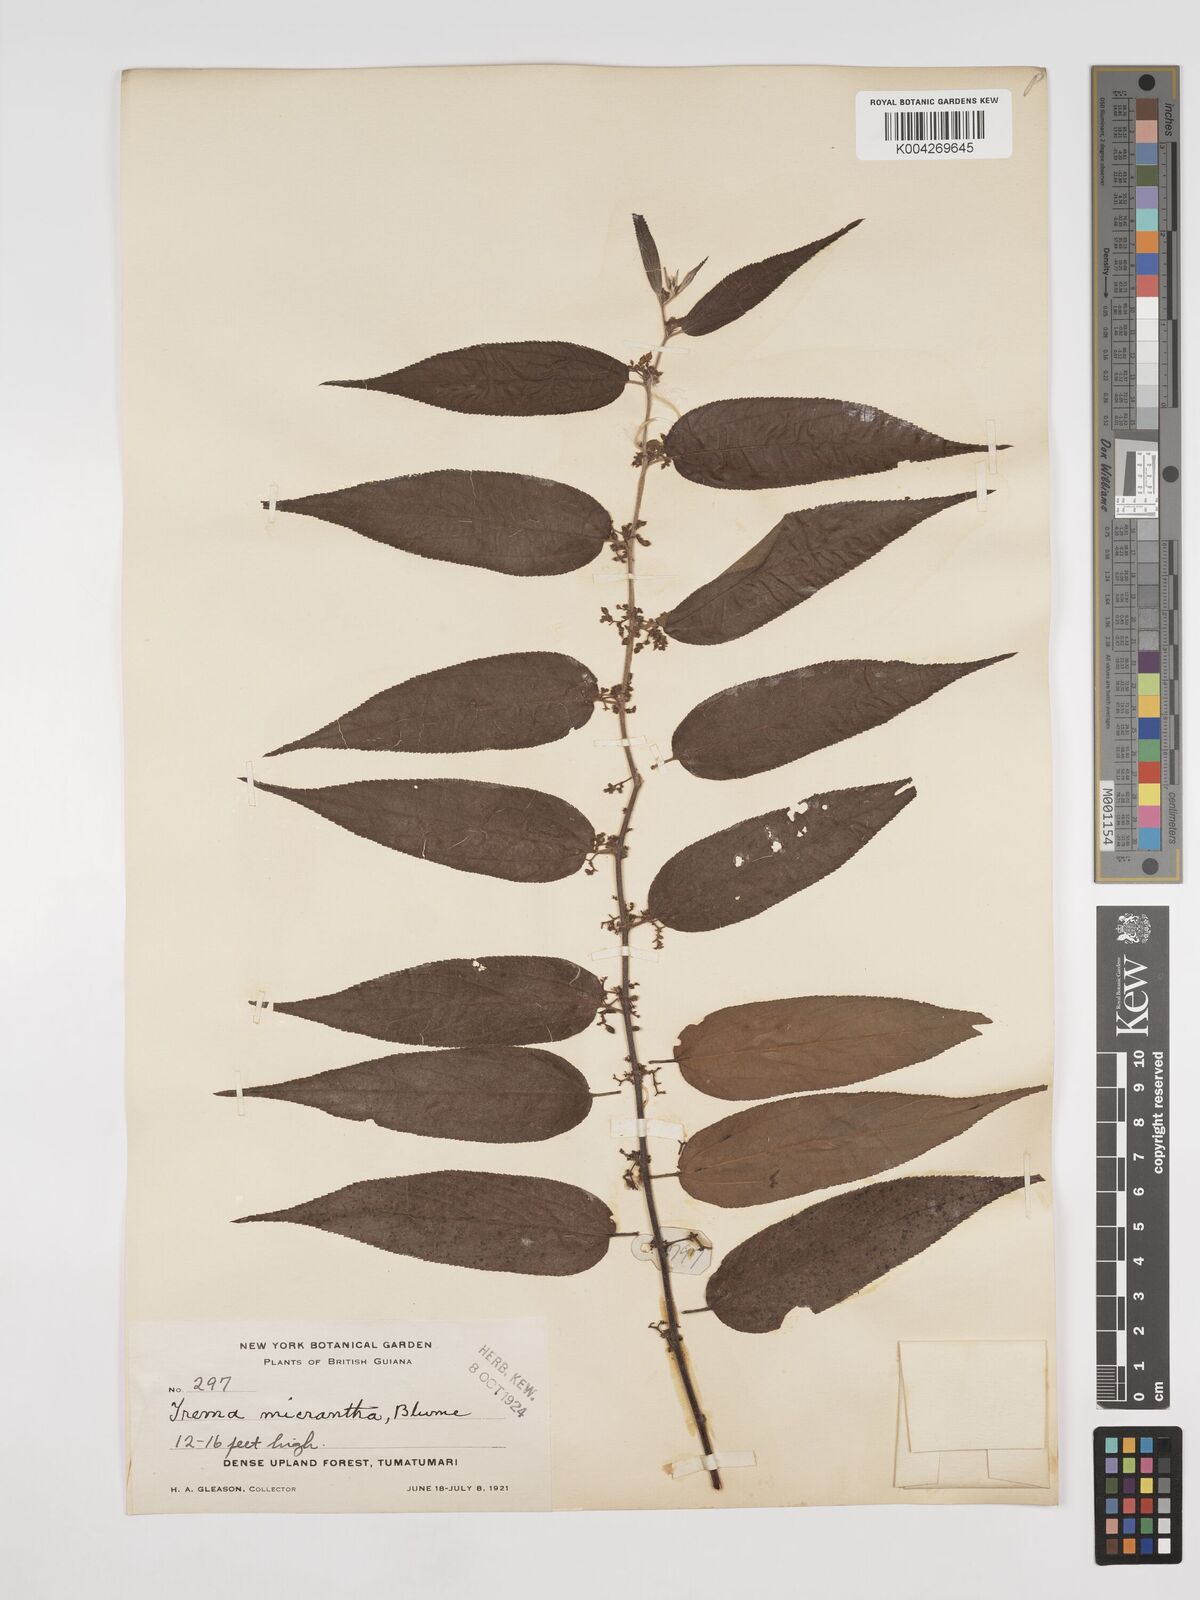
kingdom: Plantae
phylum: Tracheophyta
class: Magnoliopsida
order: Rosales
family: Cannabaceae
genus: Trema
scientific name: Trema micranthum
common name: Jamaican nettletree
